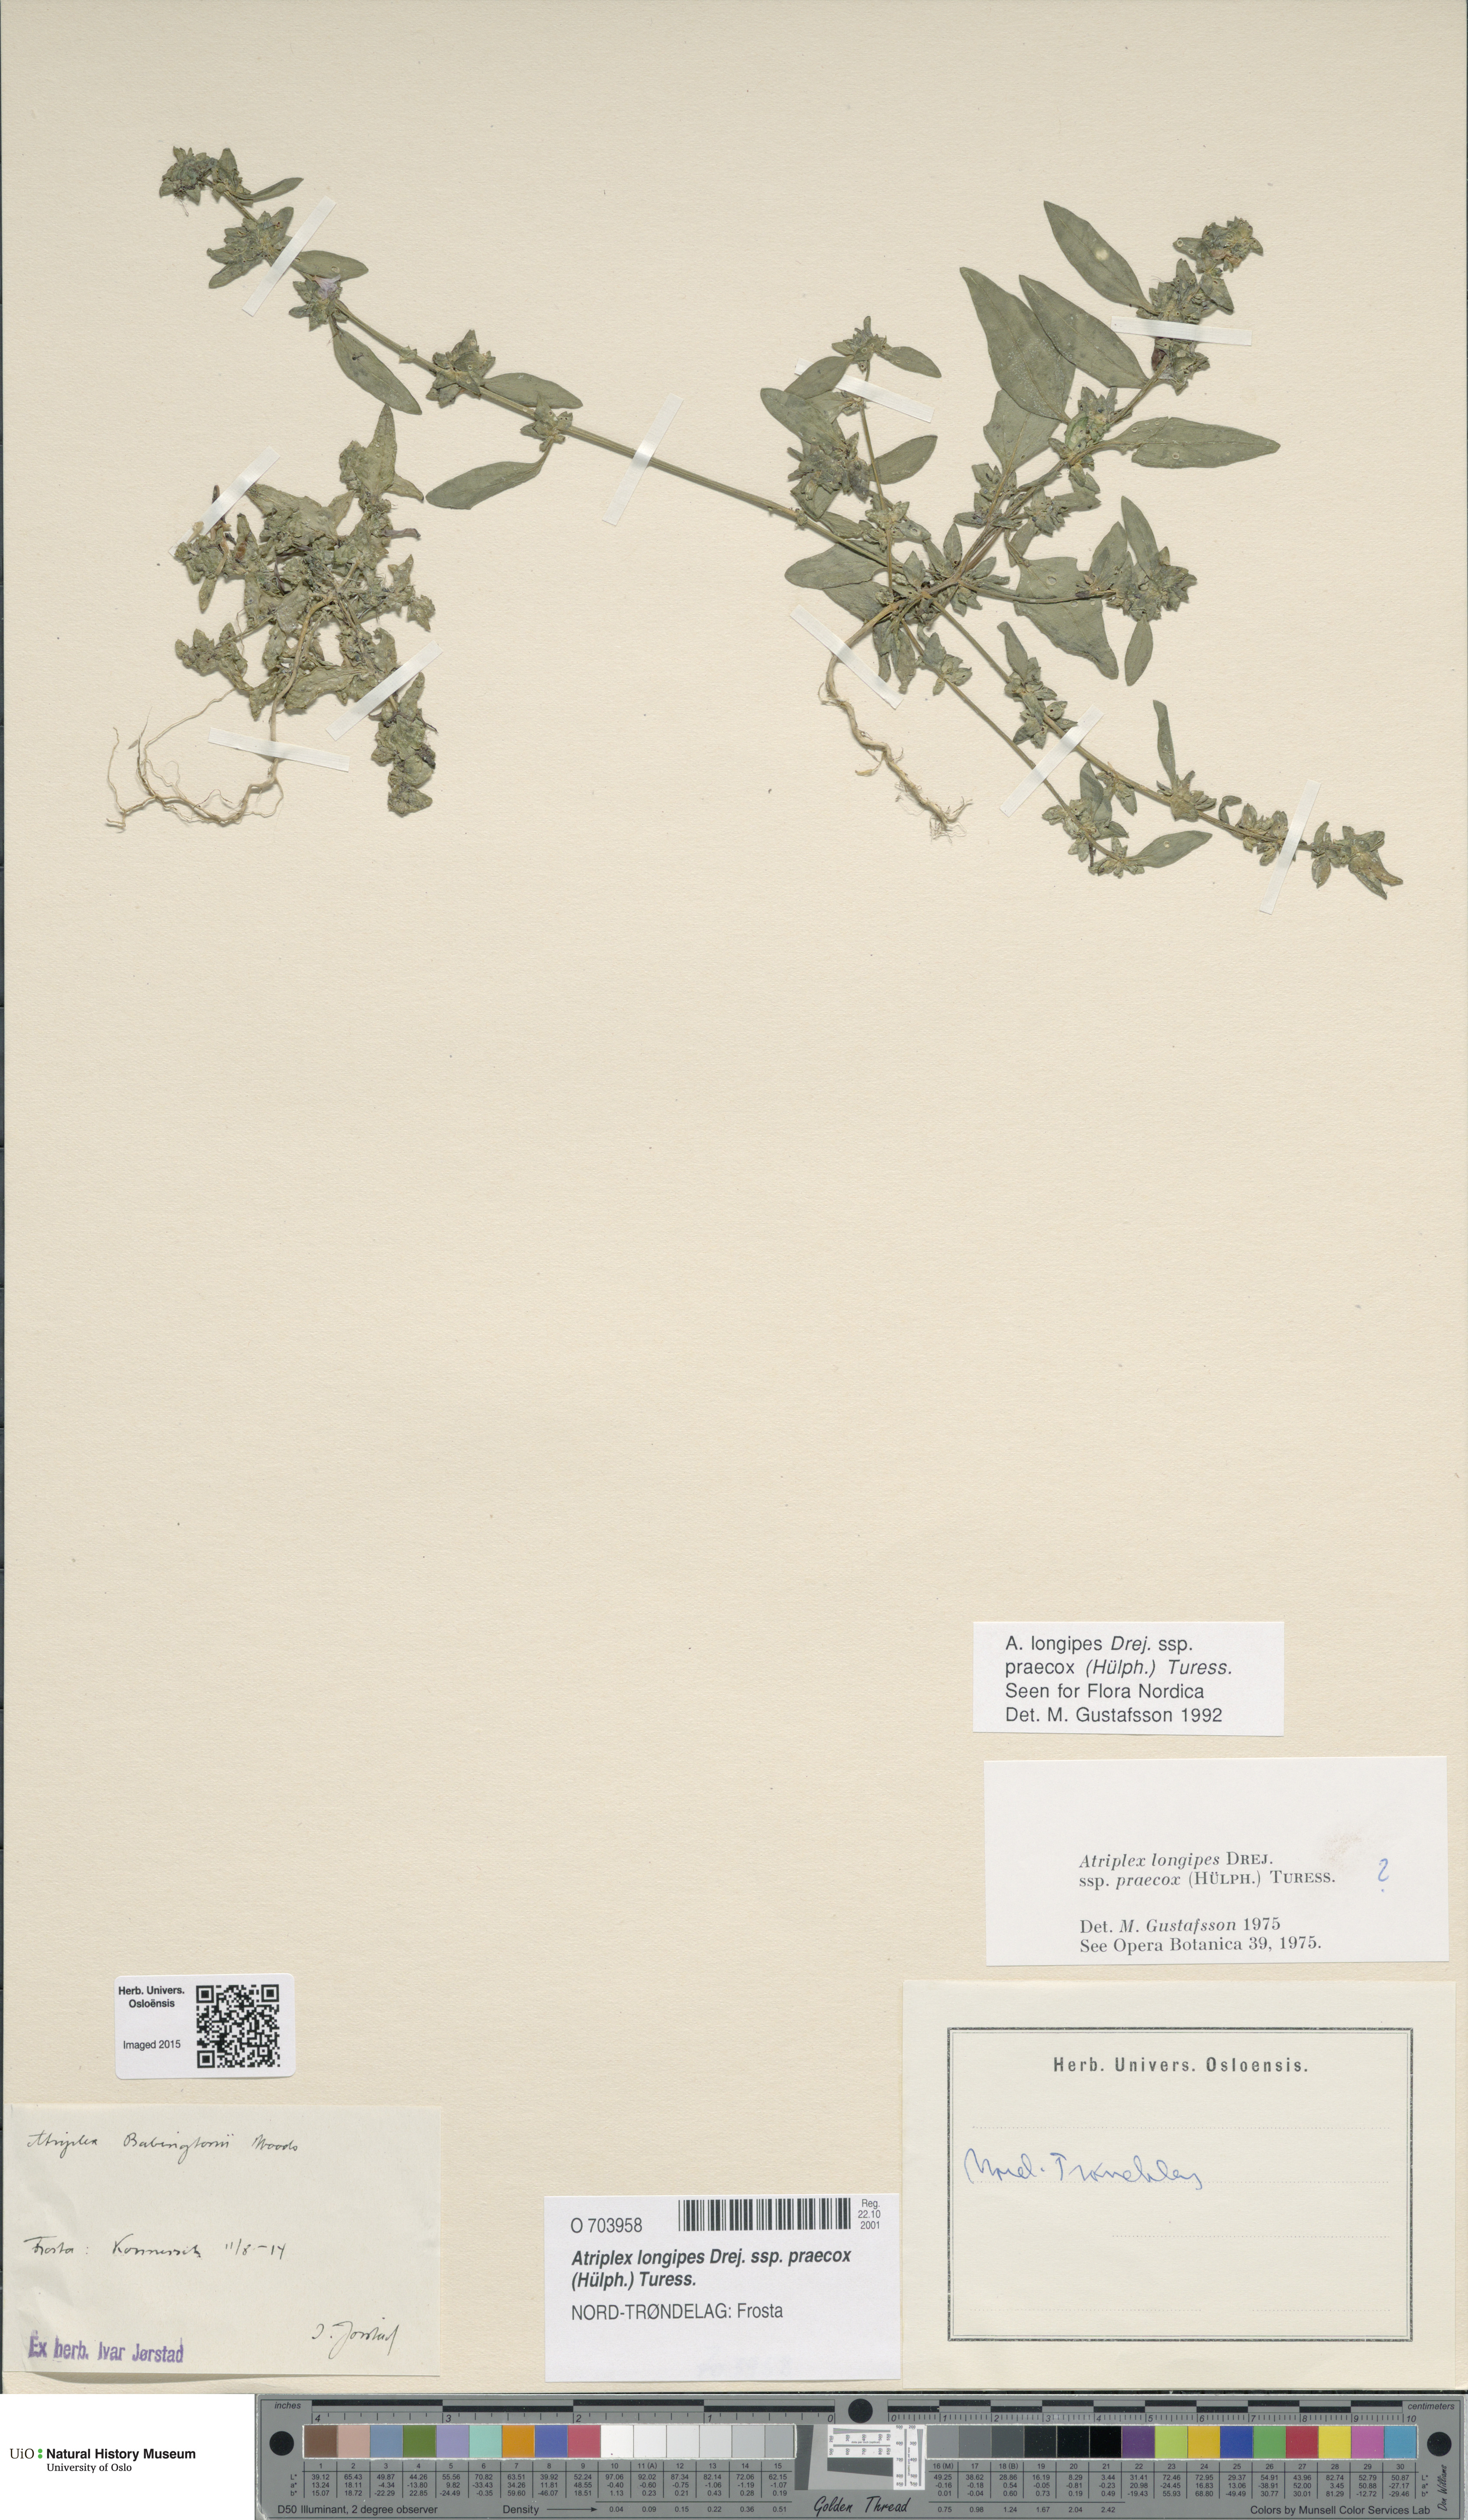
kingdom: Plantae
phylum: Tracheophyta
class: Magnoliopsida
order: Caryophyllales
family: Amaranthaceae
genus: Atriplex
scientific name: Atriplex praecox
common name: Early orache
